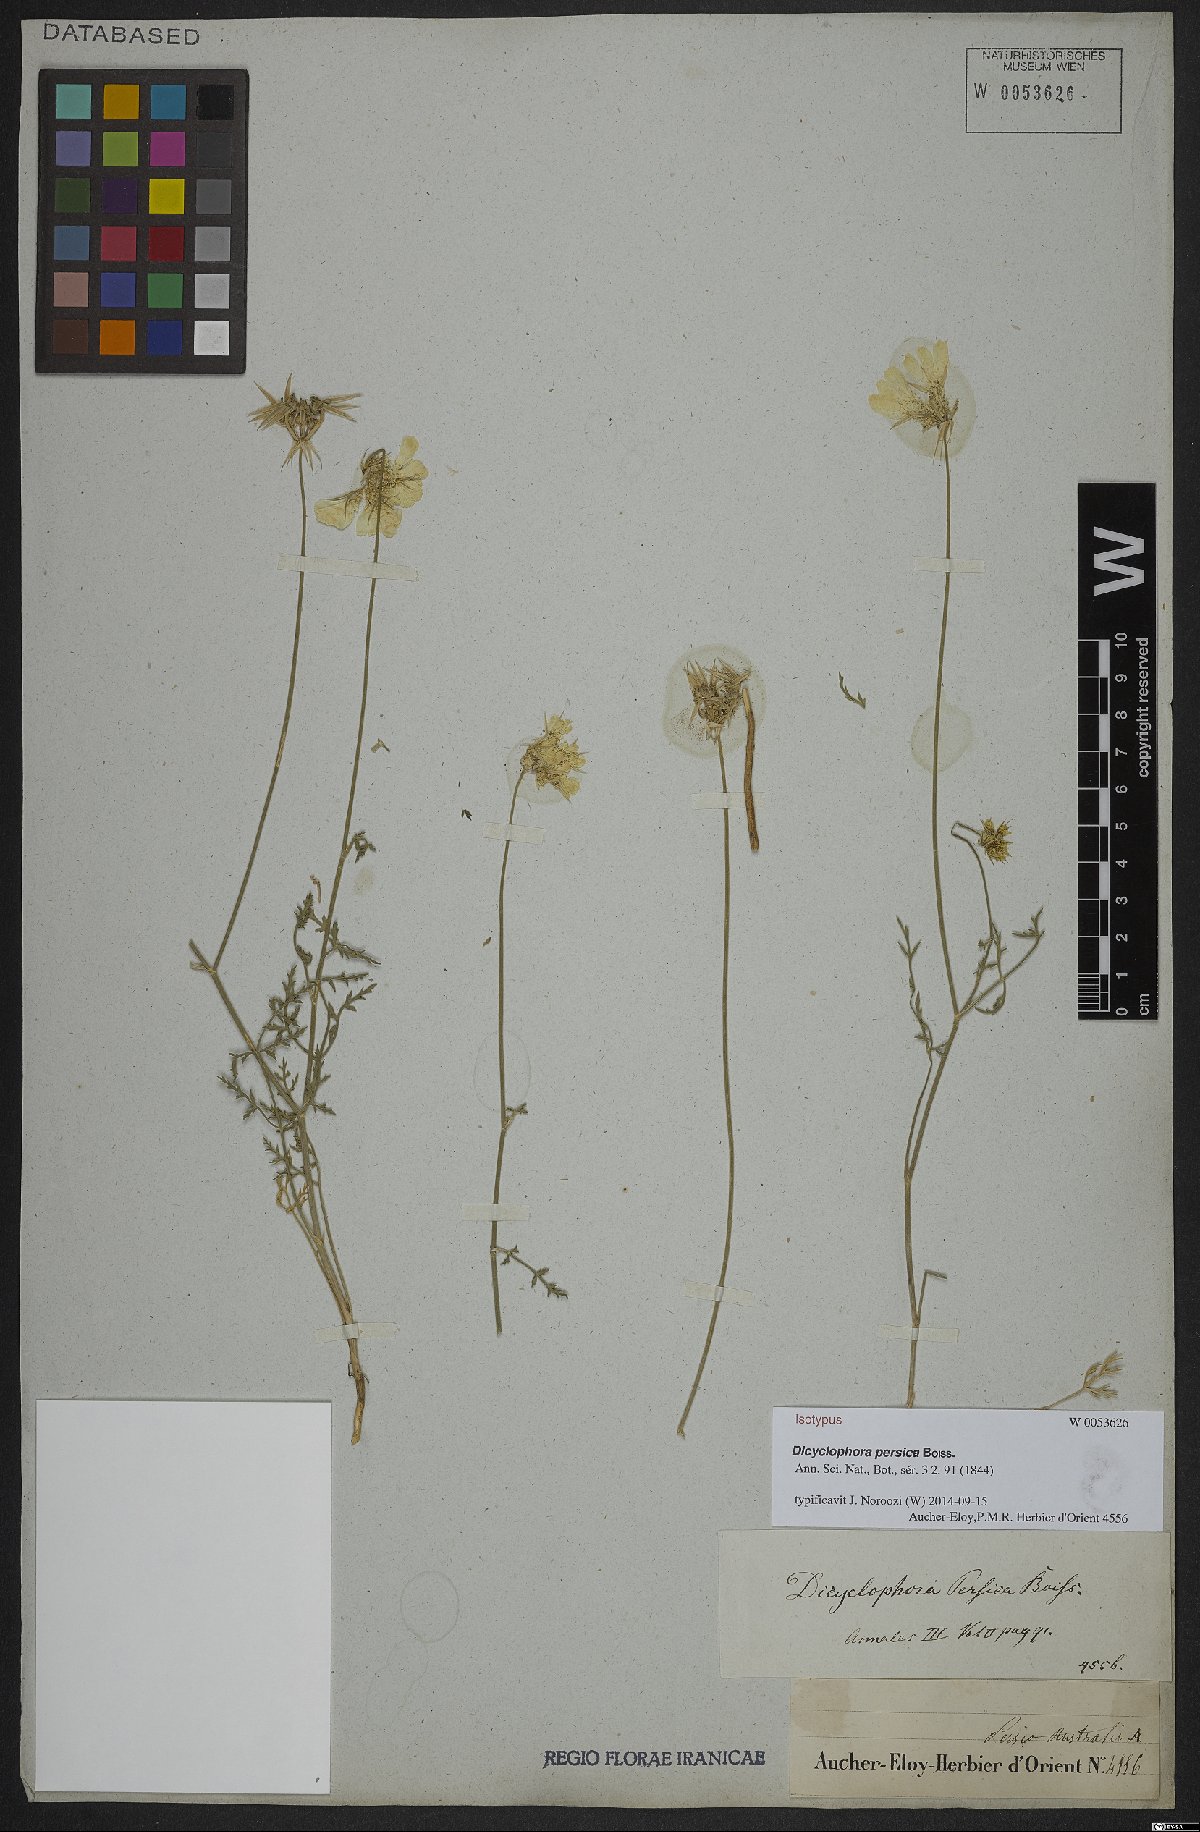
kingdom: Plantae
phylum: Tracheophyta
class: Magnoliopsida
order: Apiales
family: Apiaceae
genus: Dicyclophora
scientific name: Dicyclophora persica
